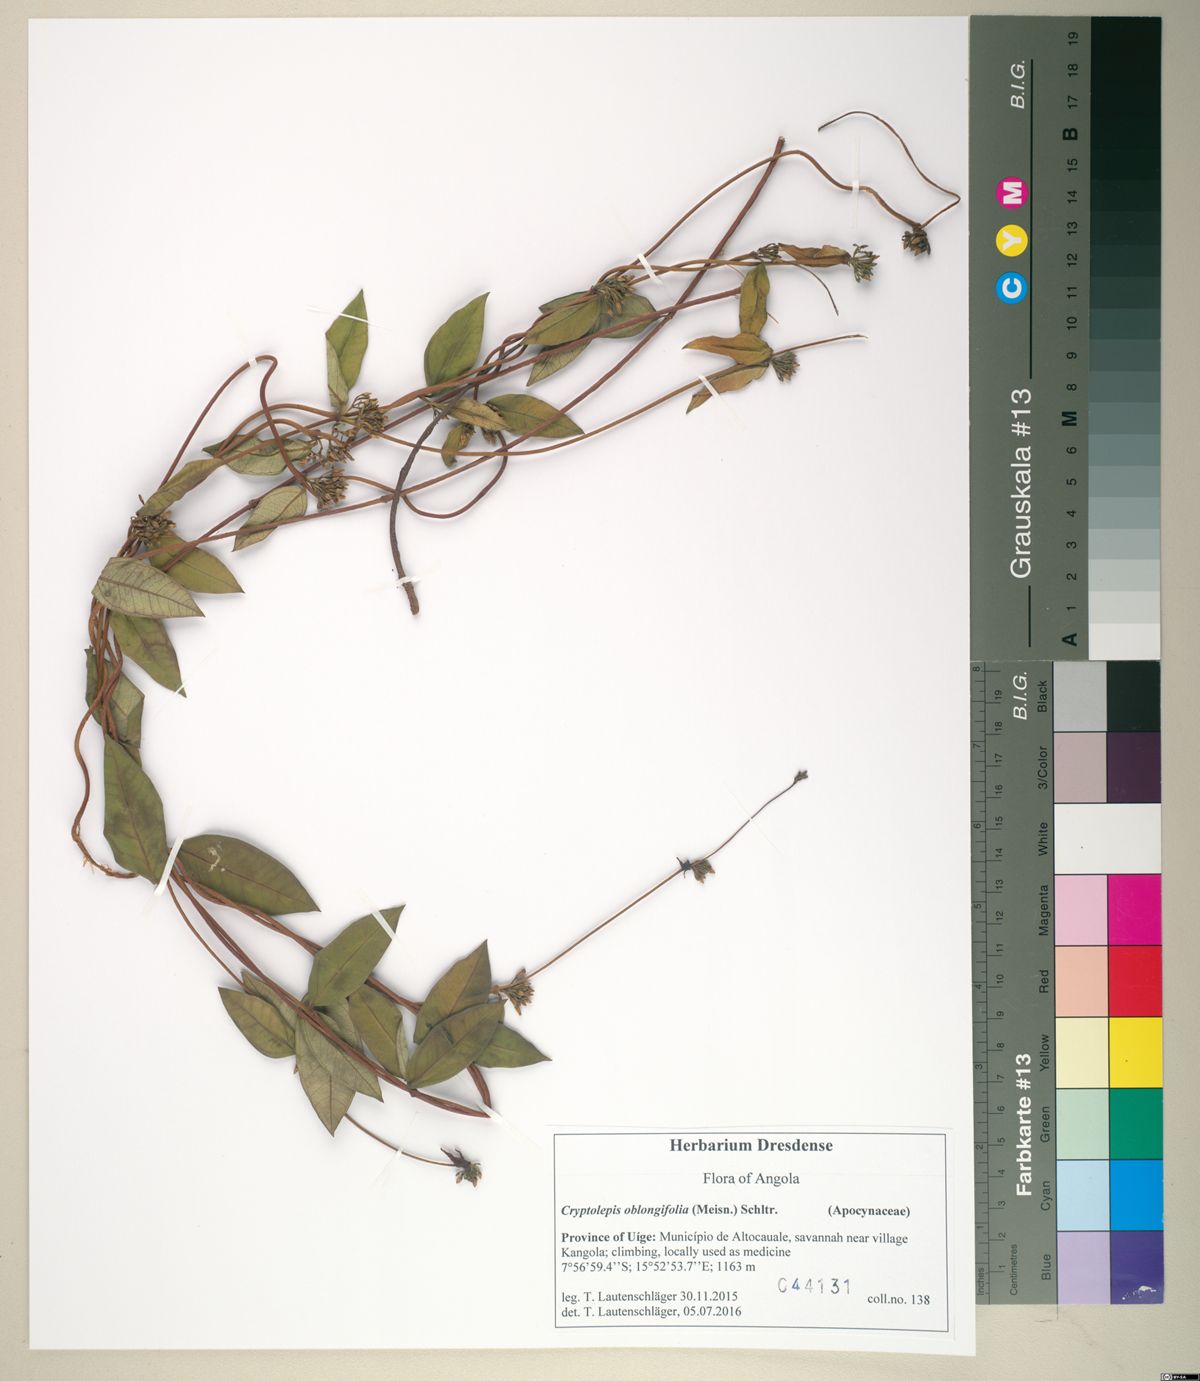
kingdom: Plantae
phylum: Tracheophyta
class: Magnoliopsida
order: Gentianales
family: Apocynaceae
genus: Cryptolepis
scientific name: Cryptolepis oblongifolia
